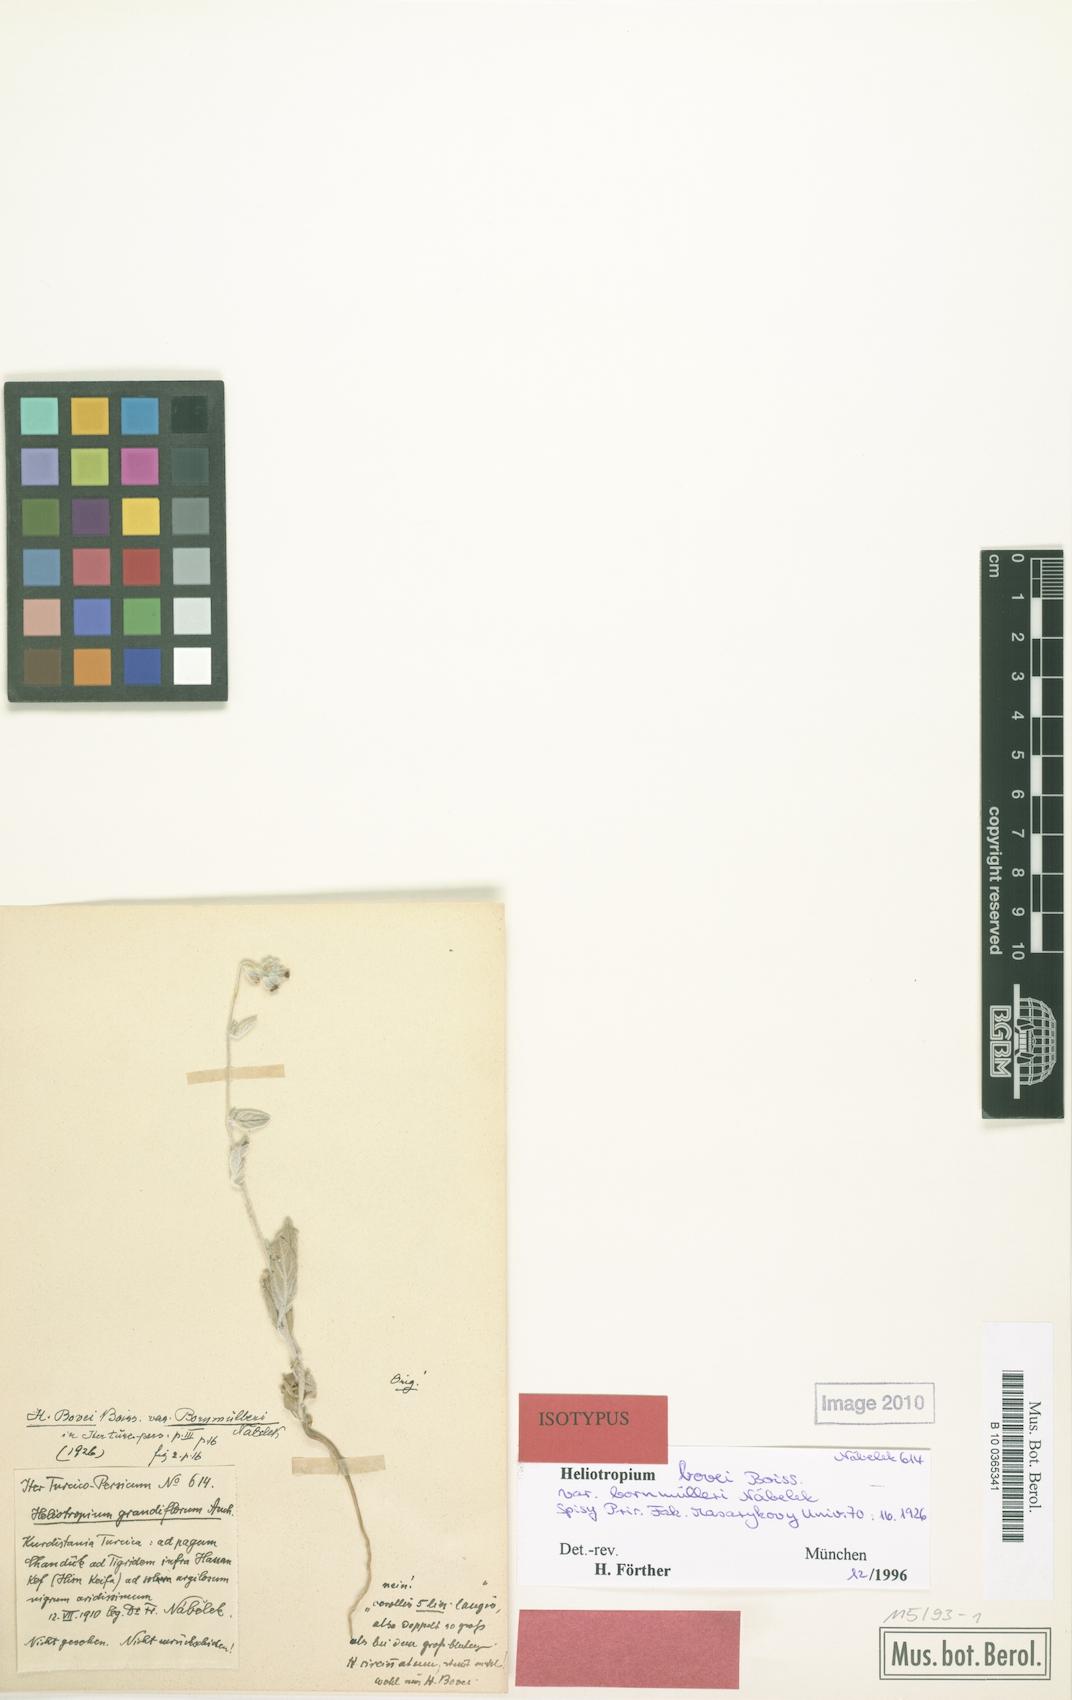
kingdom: Plantae
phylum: Tracheophyta
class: Magnoliopsida
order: Boraginales
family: Boraginaceae
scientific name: Boraginaceae
